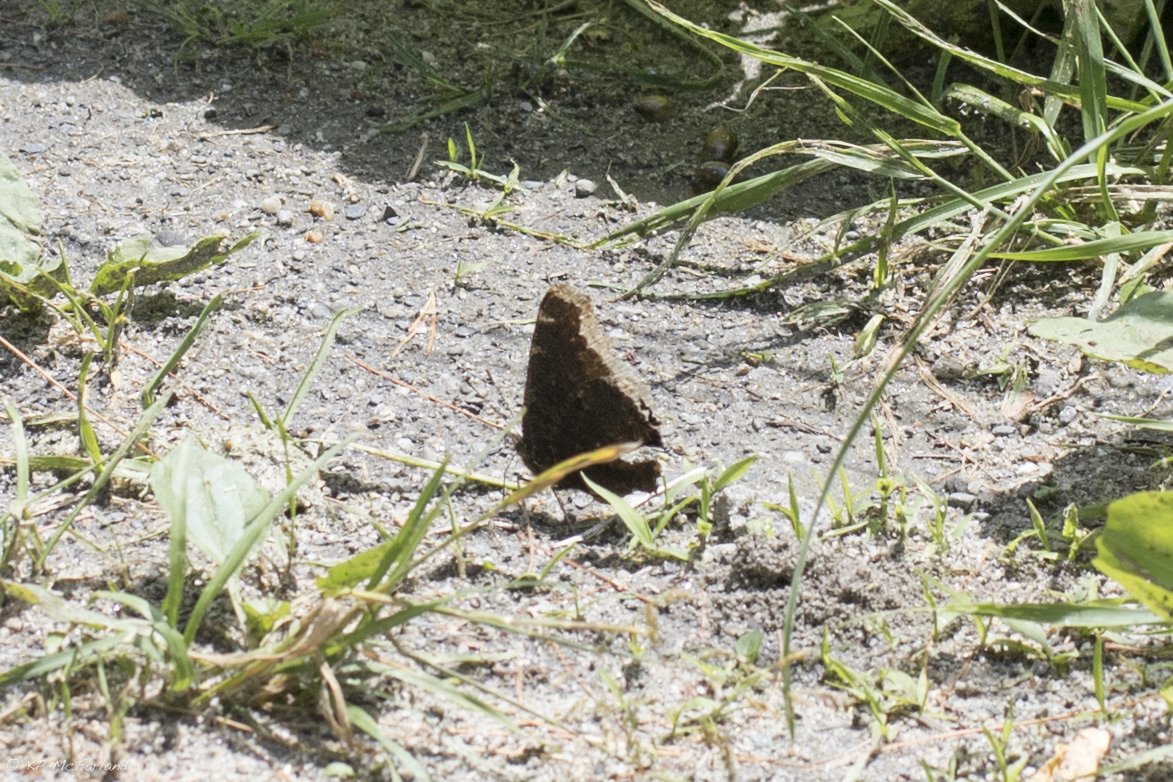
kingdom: Animalia
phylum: Arthropoda
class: Insecta
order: Lepidoptera
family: Nymphalidae
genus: Nymphalis
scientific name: Nymphalis antiopa
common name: Mourning Cloak
